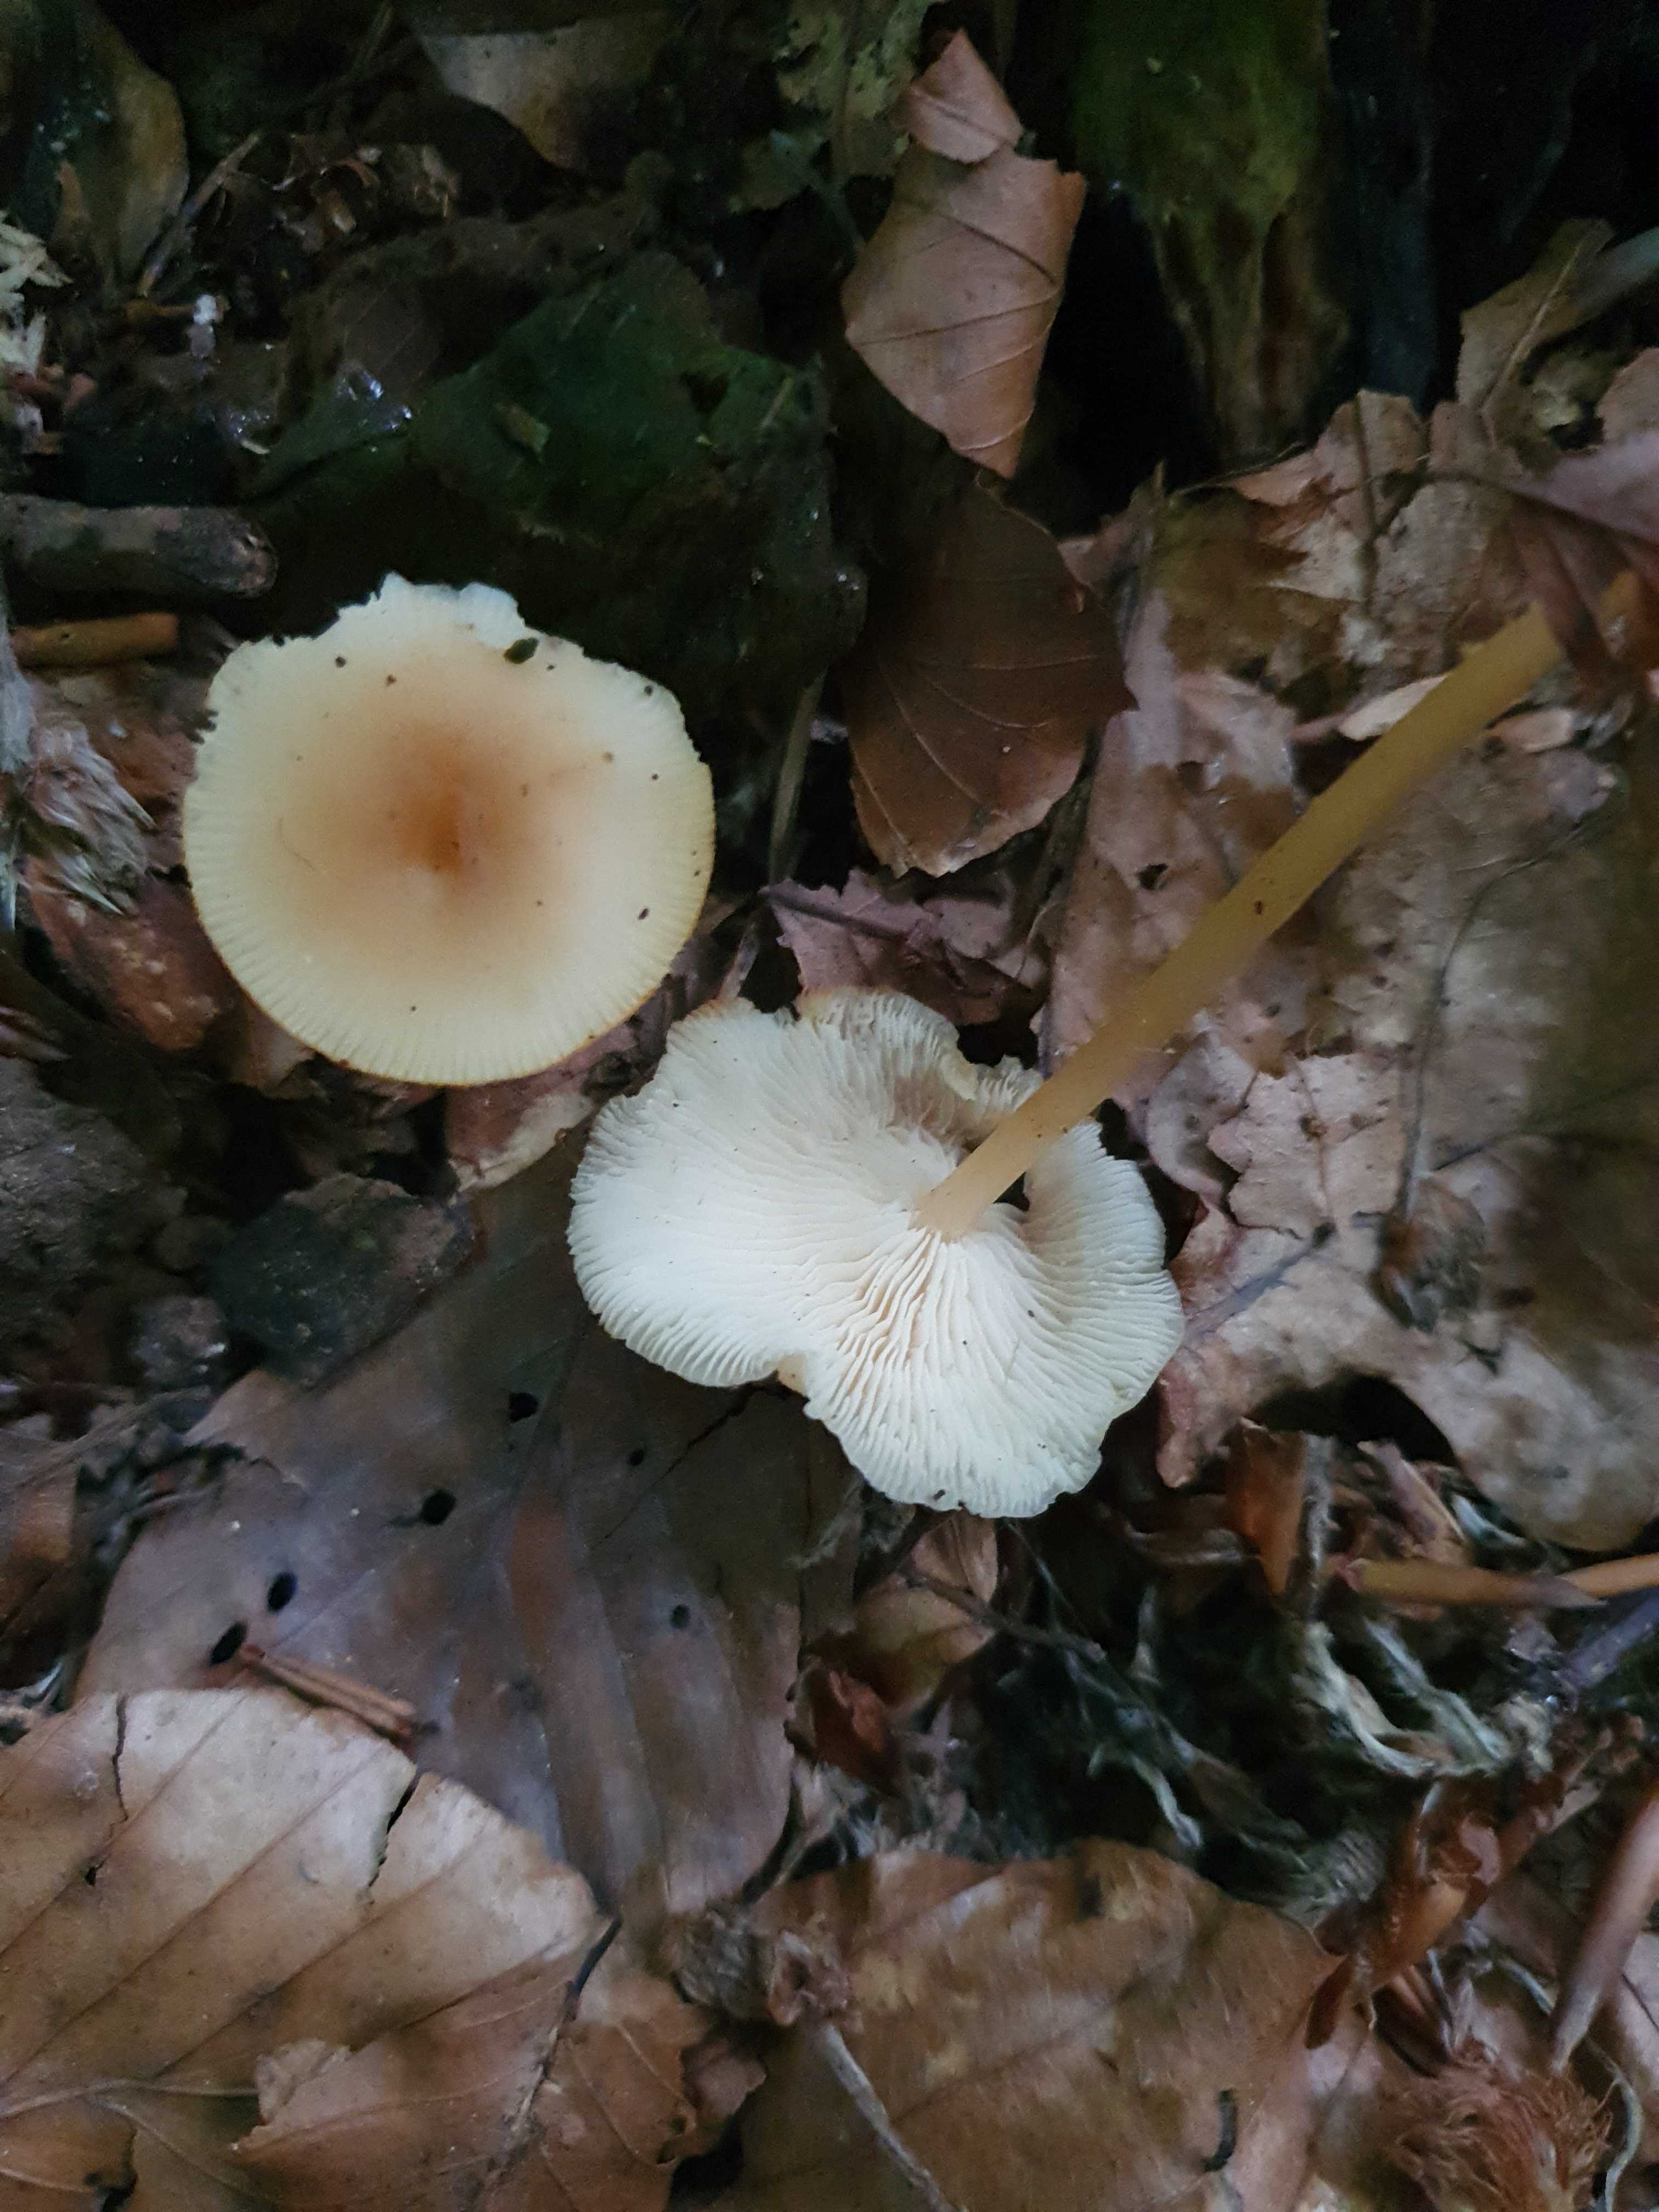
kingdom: Fungi
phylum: Basidiomycota
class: Agaricomycetes
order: Agaricales
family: Omphalotaceae
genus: Gymnopus
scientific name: Gymnopus
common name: fladhat
